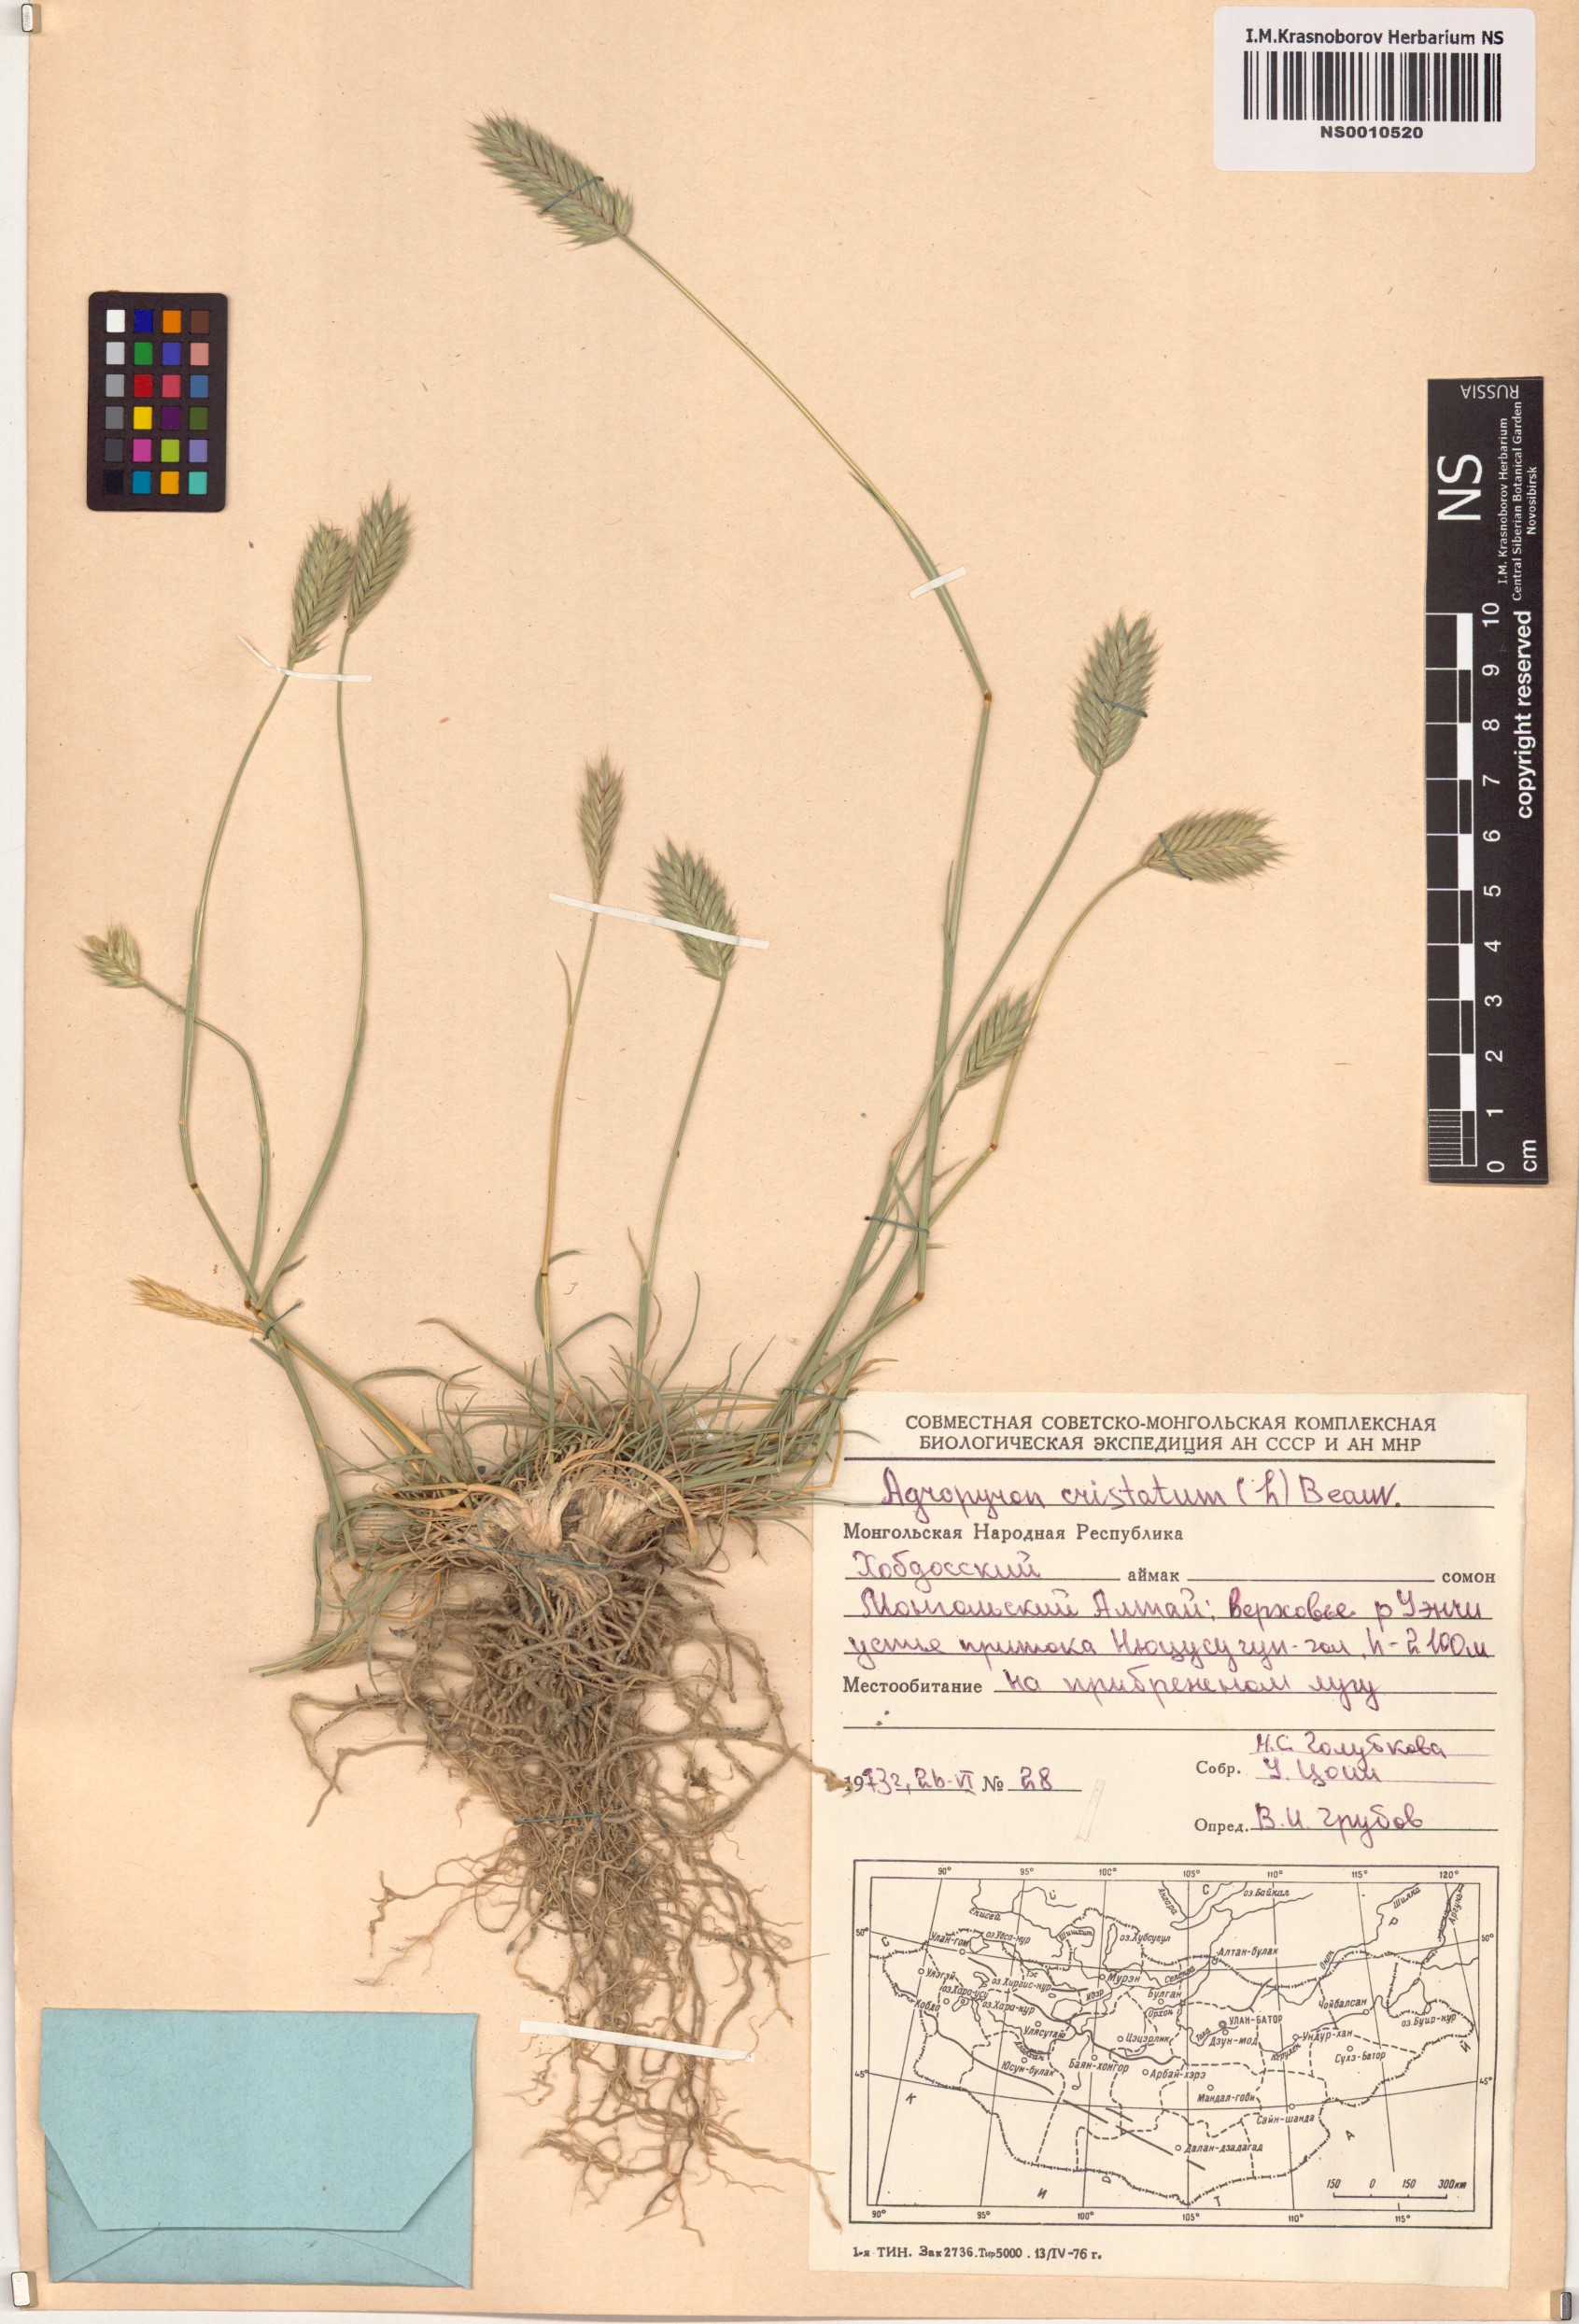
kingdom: Plantae
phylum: Tracheophyta
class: Liliopsida
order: Poales
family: Poaceae
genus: Agropyron
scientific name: Agropyron cristatum
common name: Crested wheatgrass
